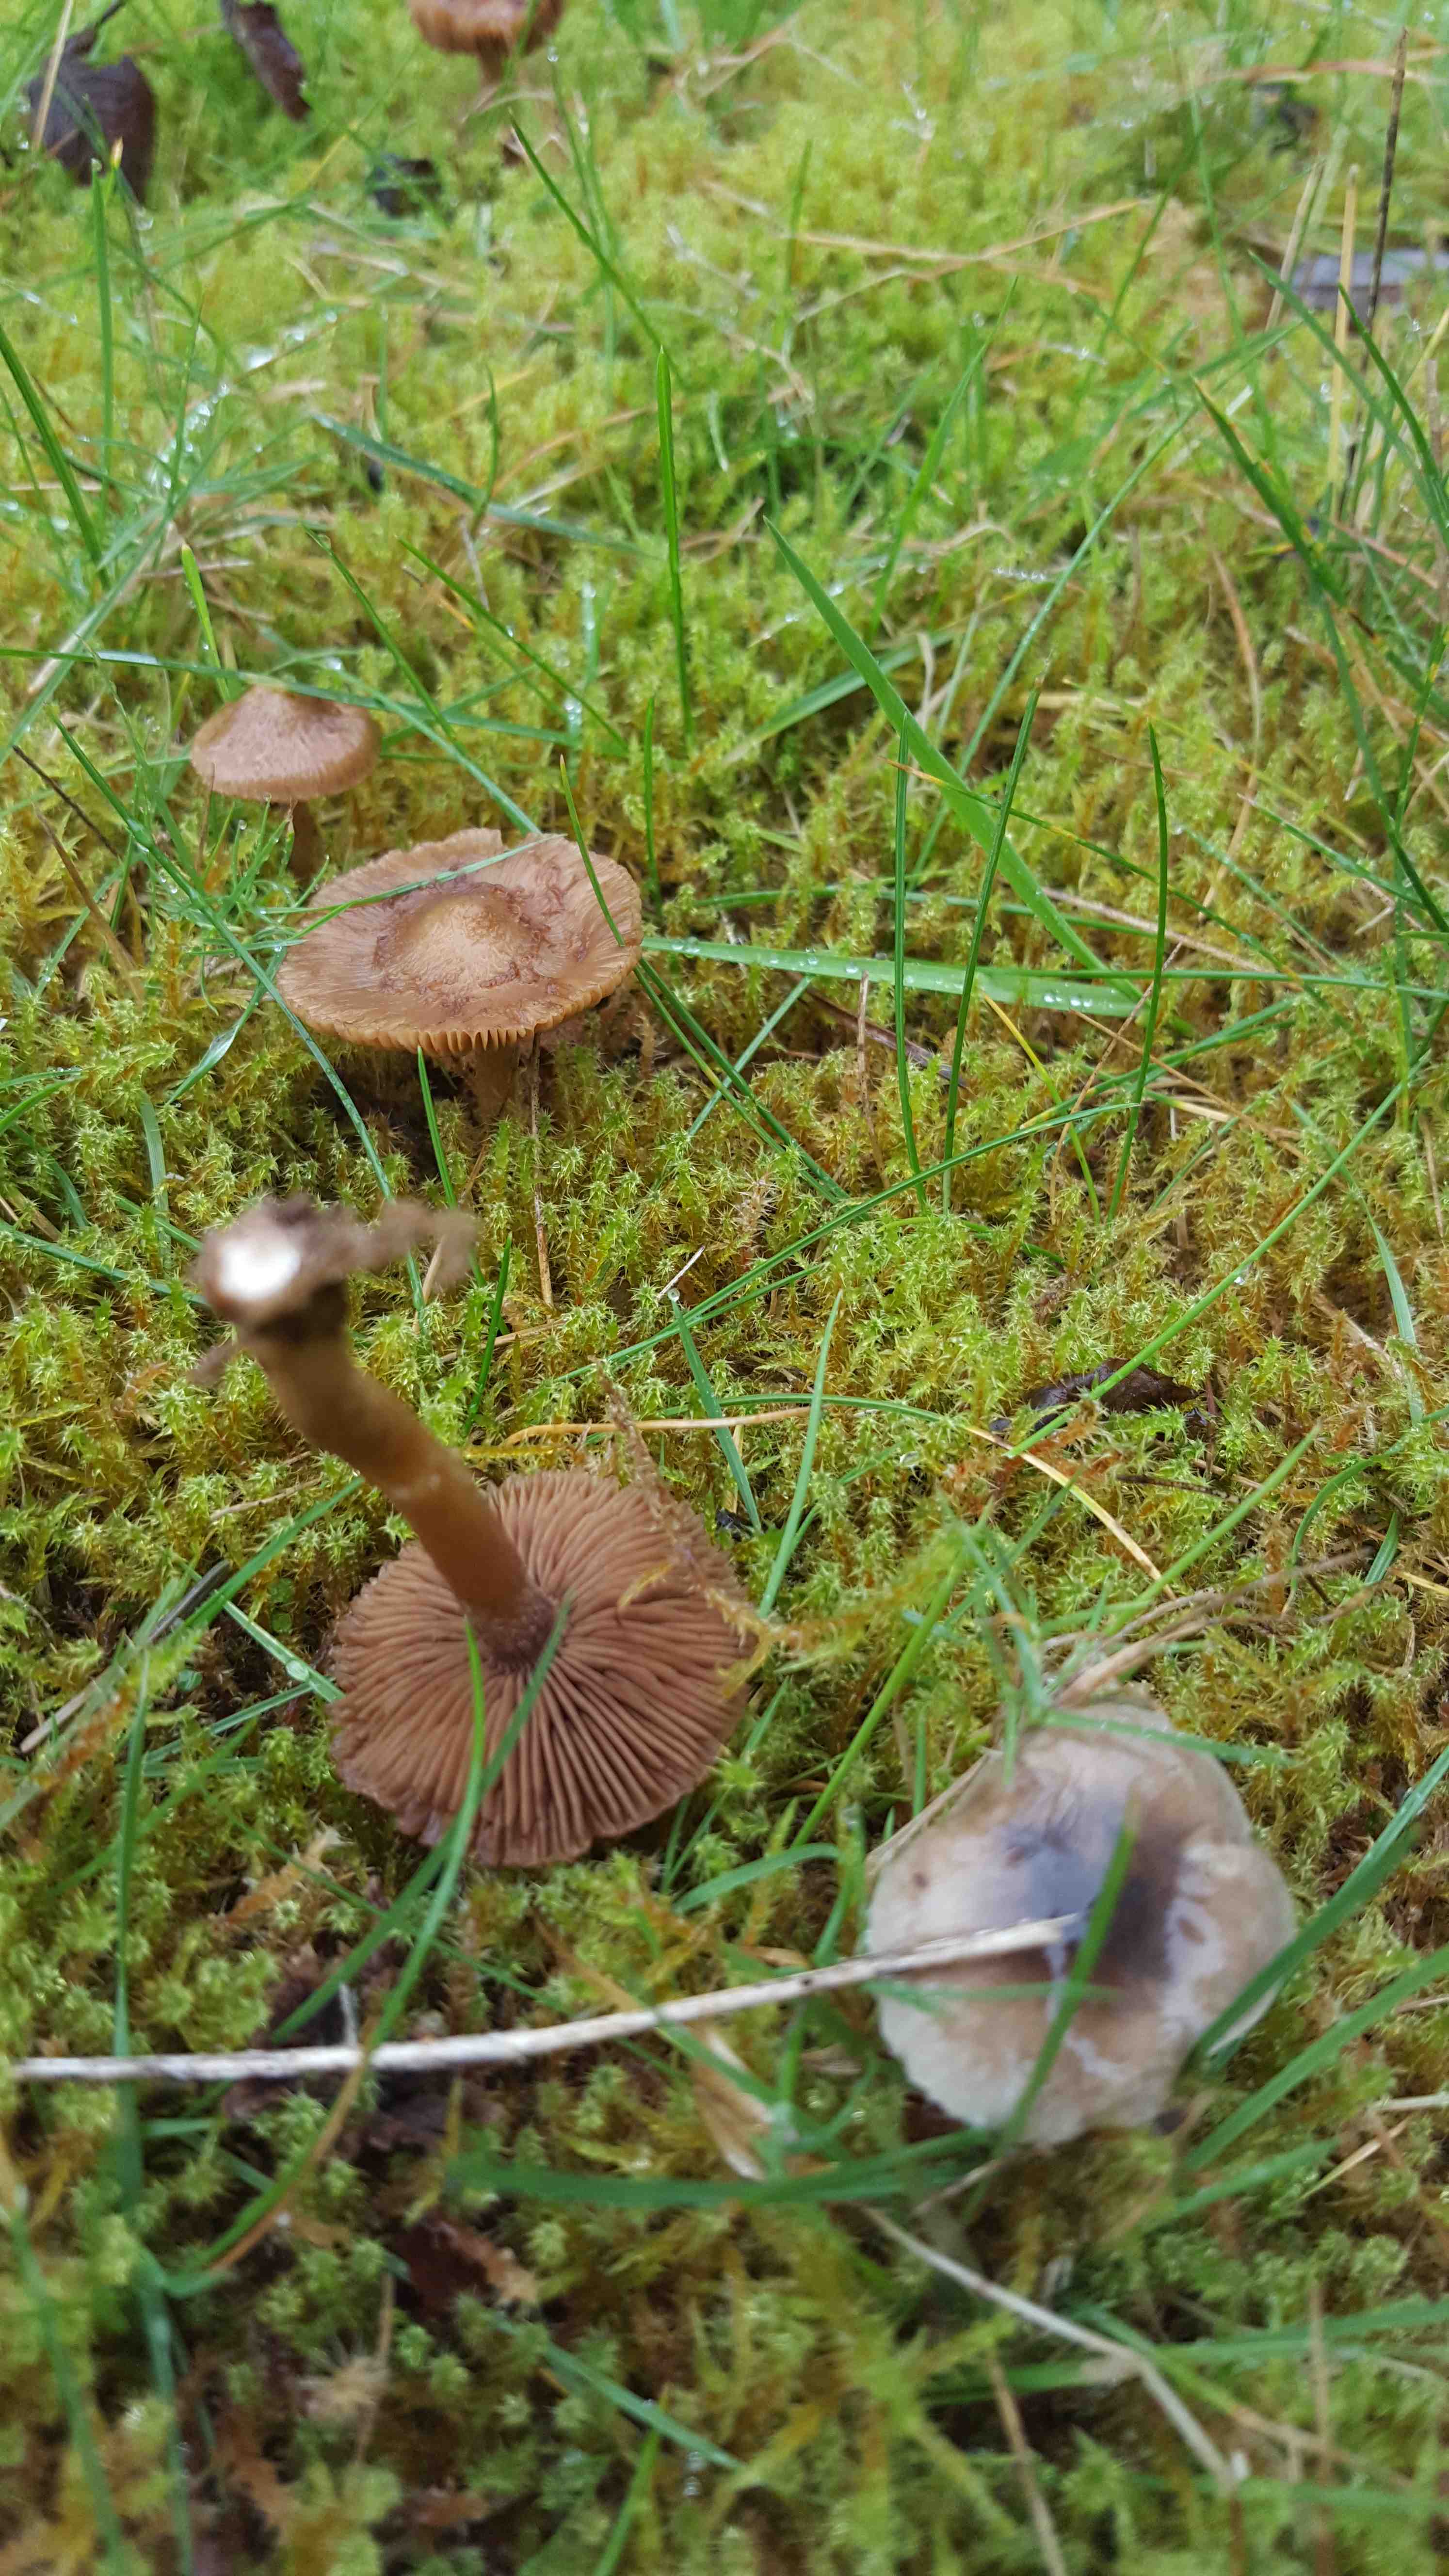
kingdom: Fungi
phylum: Basidiomycota
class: Agaricomycetes
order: Agaricales
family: Inocybaceae
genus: Inocybe
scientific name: Inocybe
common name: trævlhat
